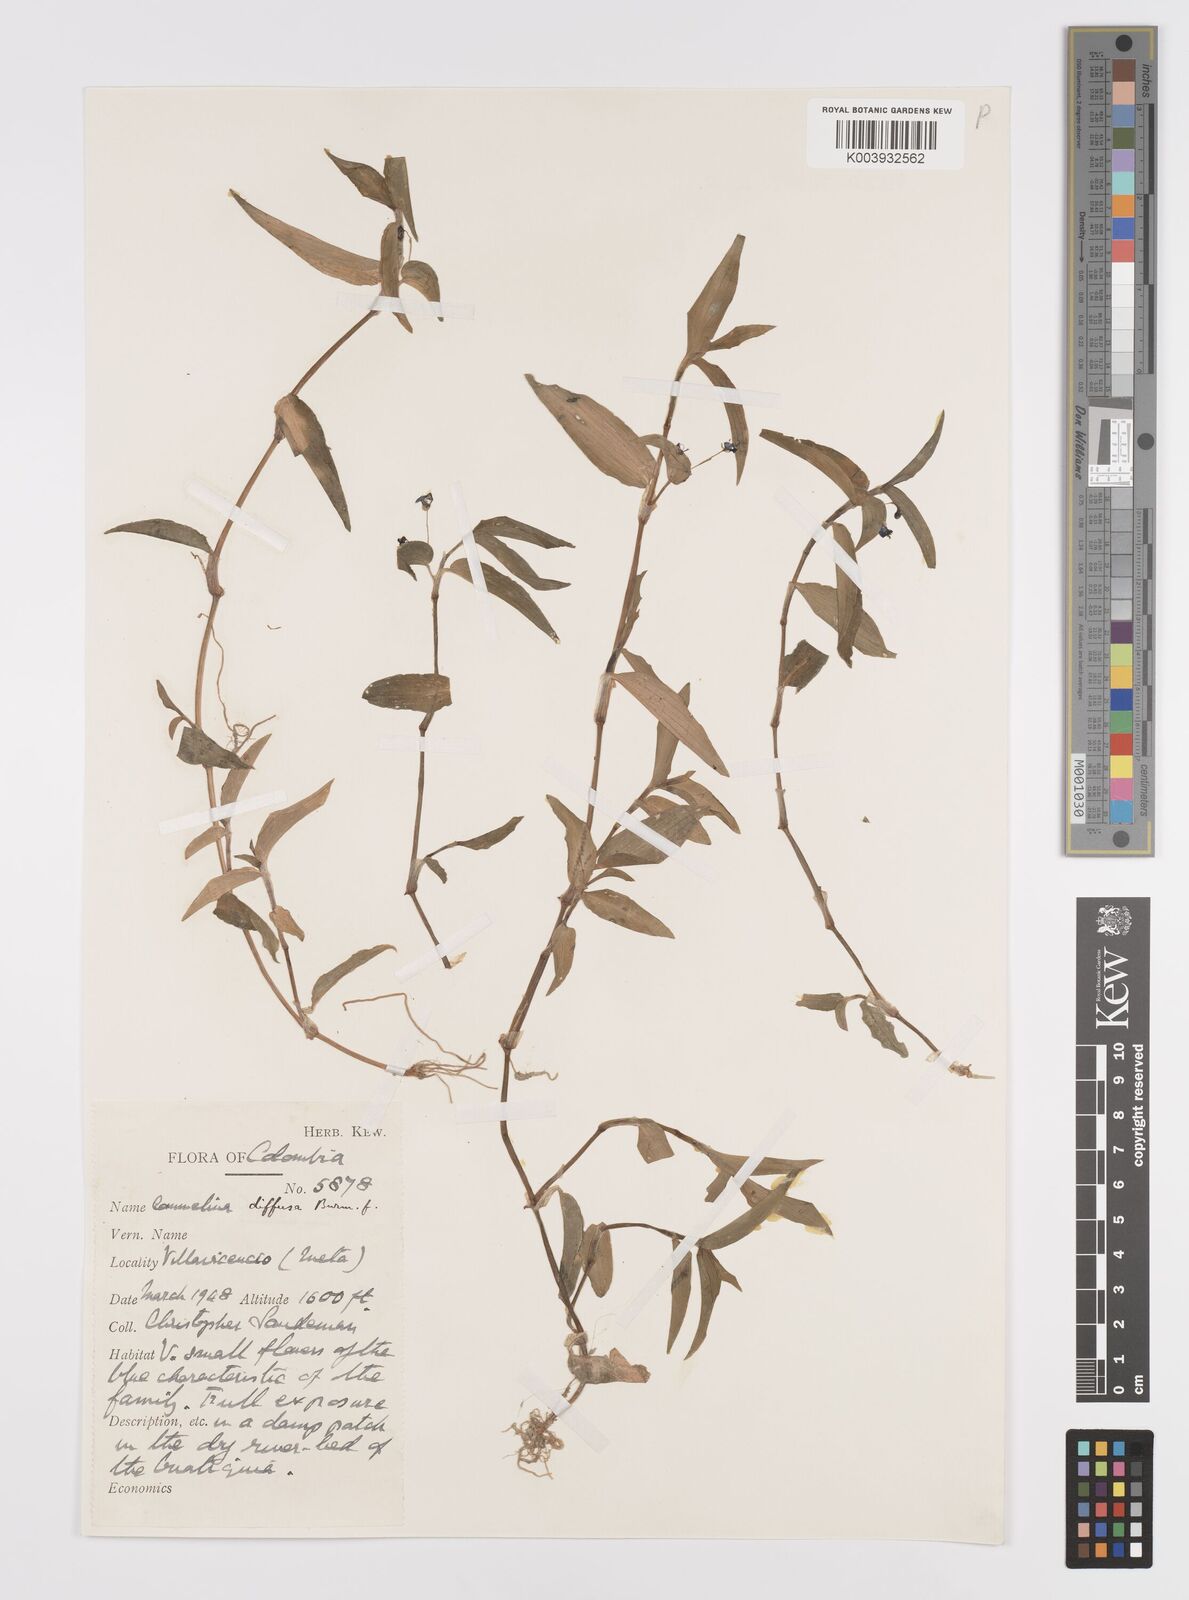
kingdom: Plantae
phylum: Tracheophyta
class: Liliopsida
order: Commelinales
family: Commelinaceae
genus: Commelina
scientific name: Commelina diffusa
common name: Climbing dayflower
